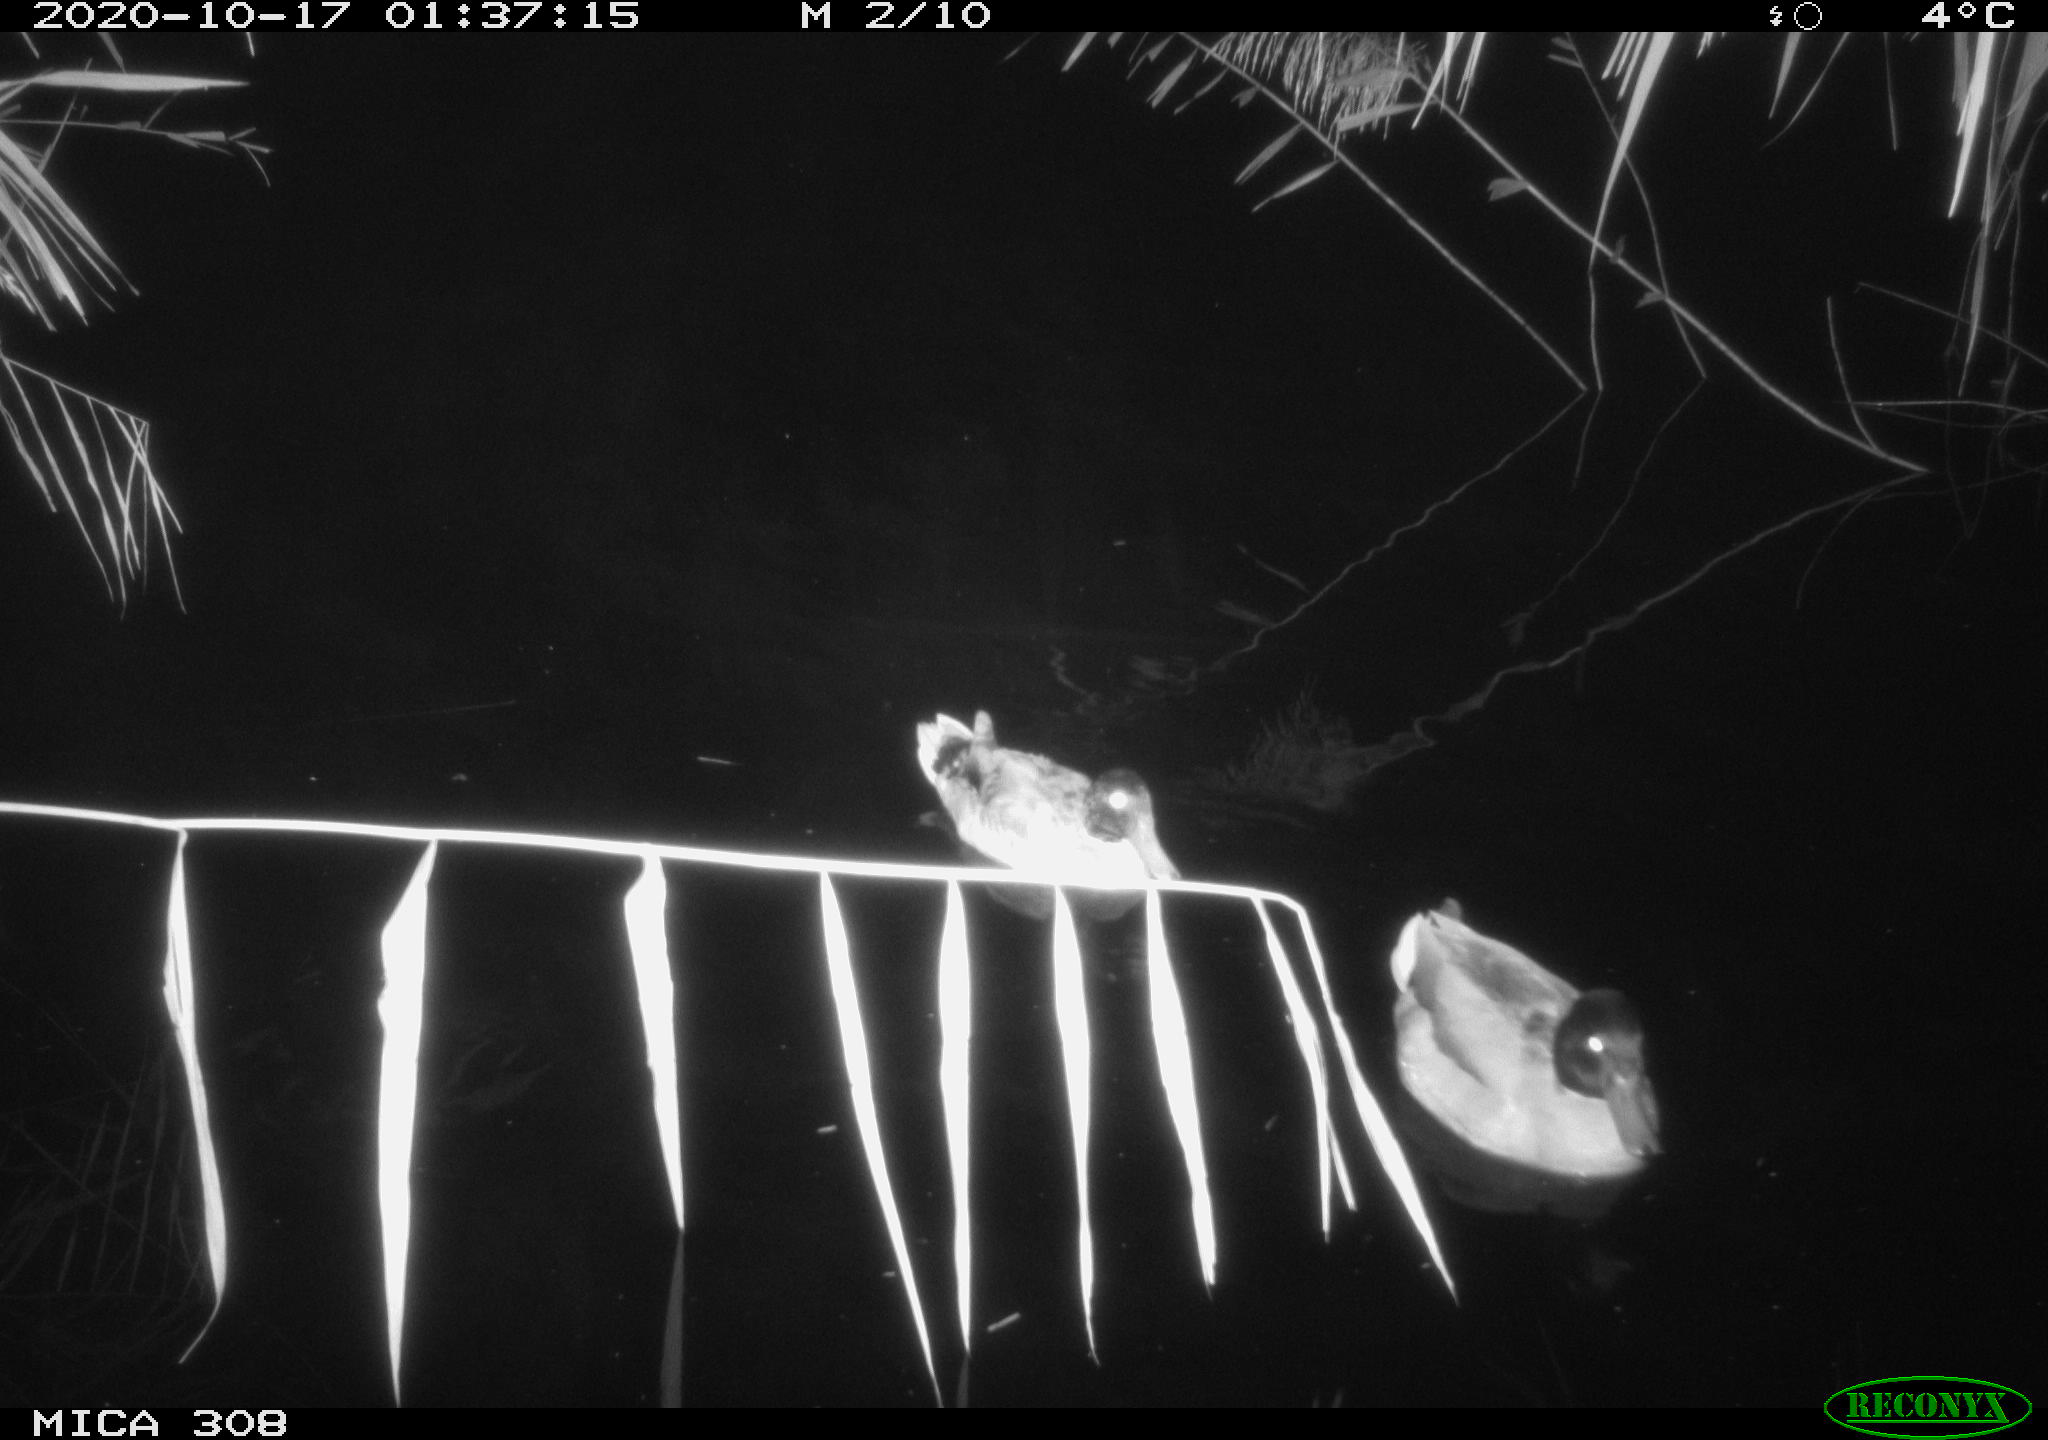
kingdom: Animalia
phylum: Chordata
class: Aves
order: Anseriformes
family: Anatidae
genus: Anas
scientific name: Anas platyrhynchos
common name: Mallard
